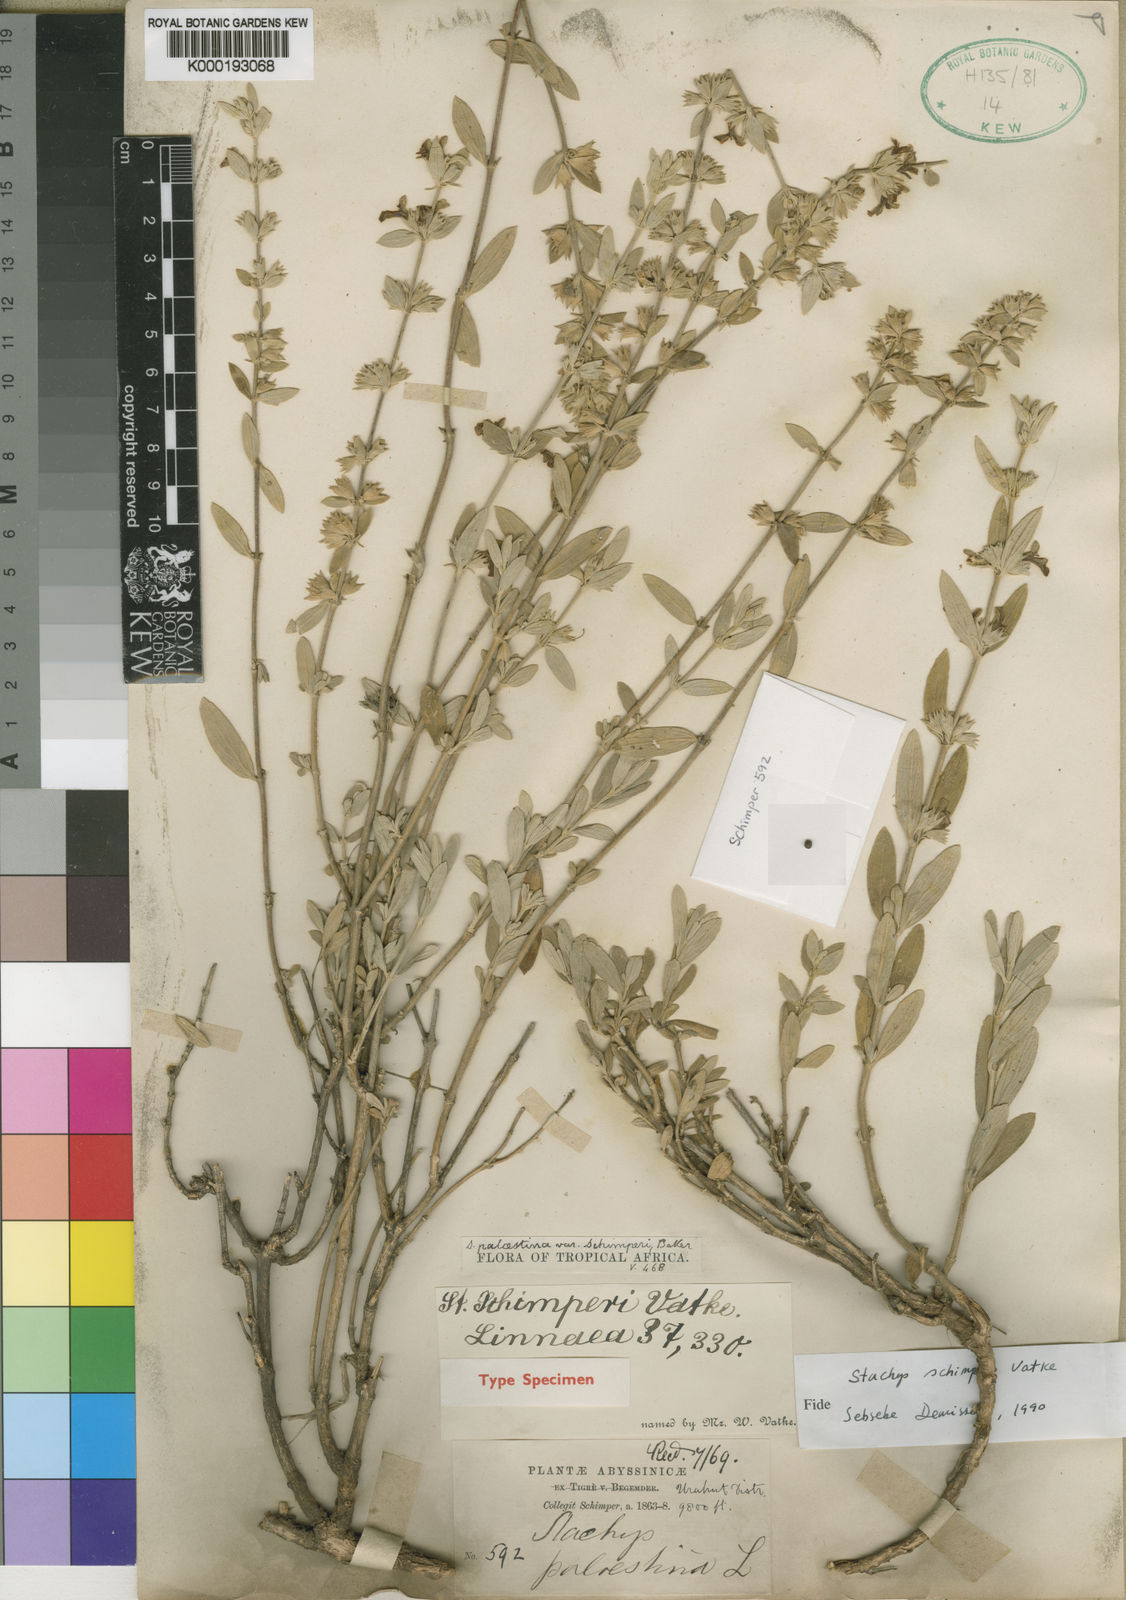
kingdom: Plantae
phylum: Tracheophyta
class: Magnoliopsida
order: Lamiales
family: Lamiaceae
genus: Stachys
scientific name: Stachys schimperi
